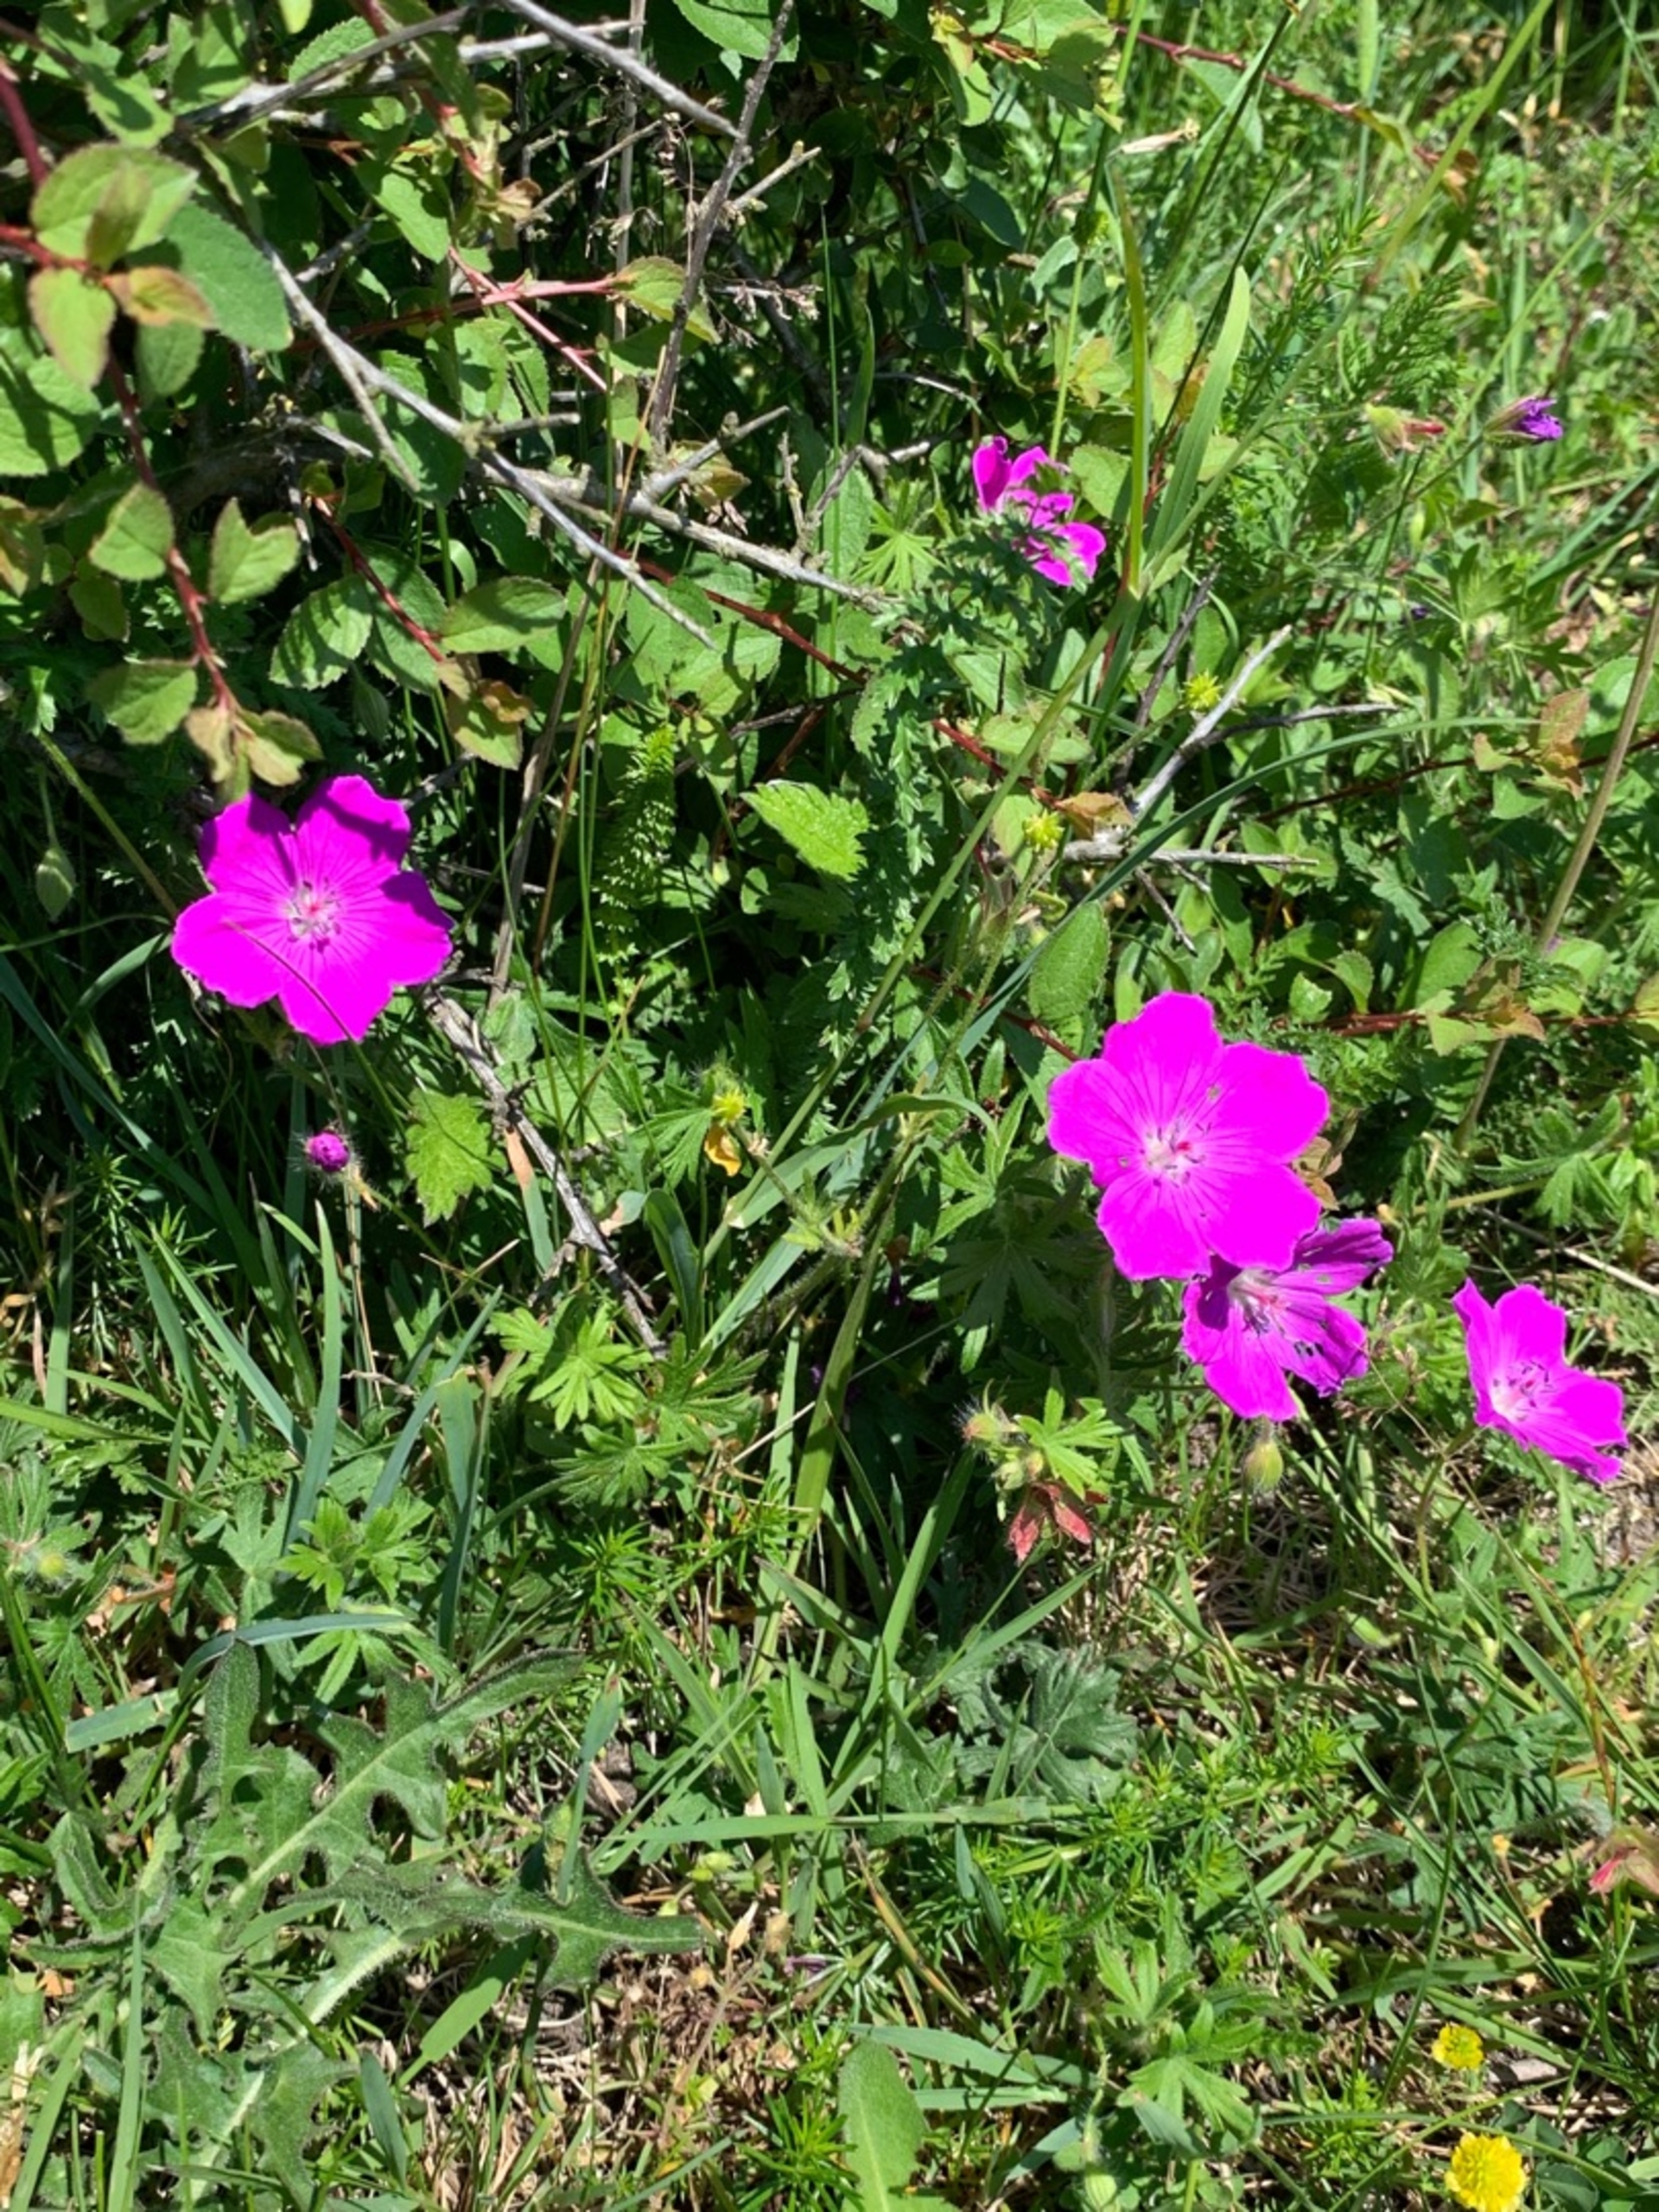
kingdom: Plantae
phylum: Tracheophyta
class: Magnoliopsida
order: Geraniales
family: Geraniaceae
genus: Geranium
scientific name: Geranium sanguineum
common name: Blodrød storkenæb
